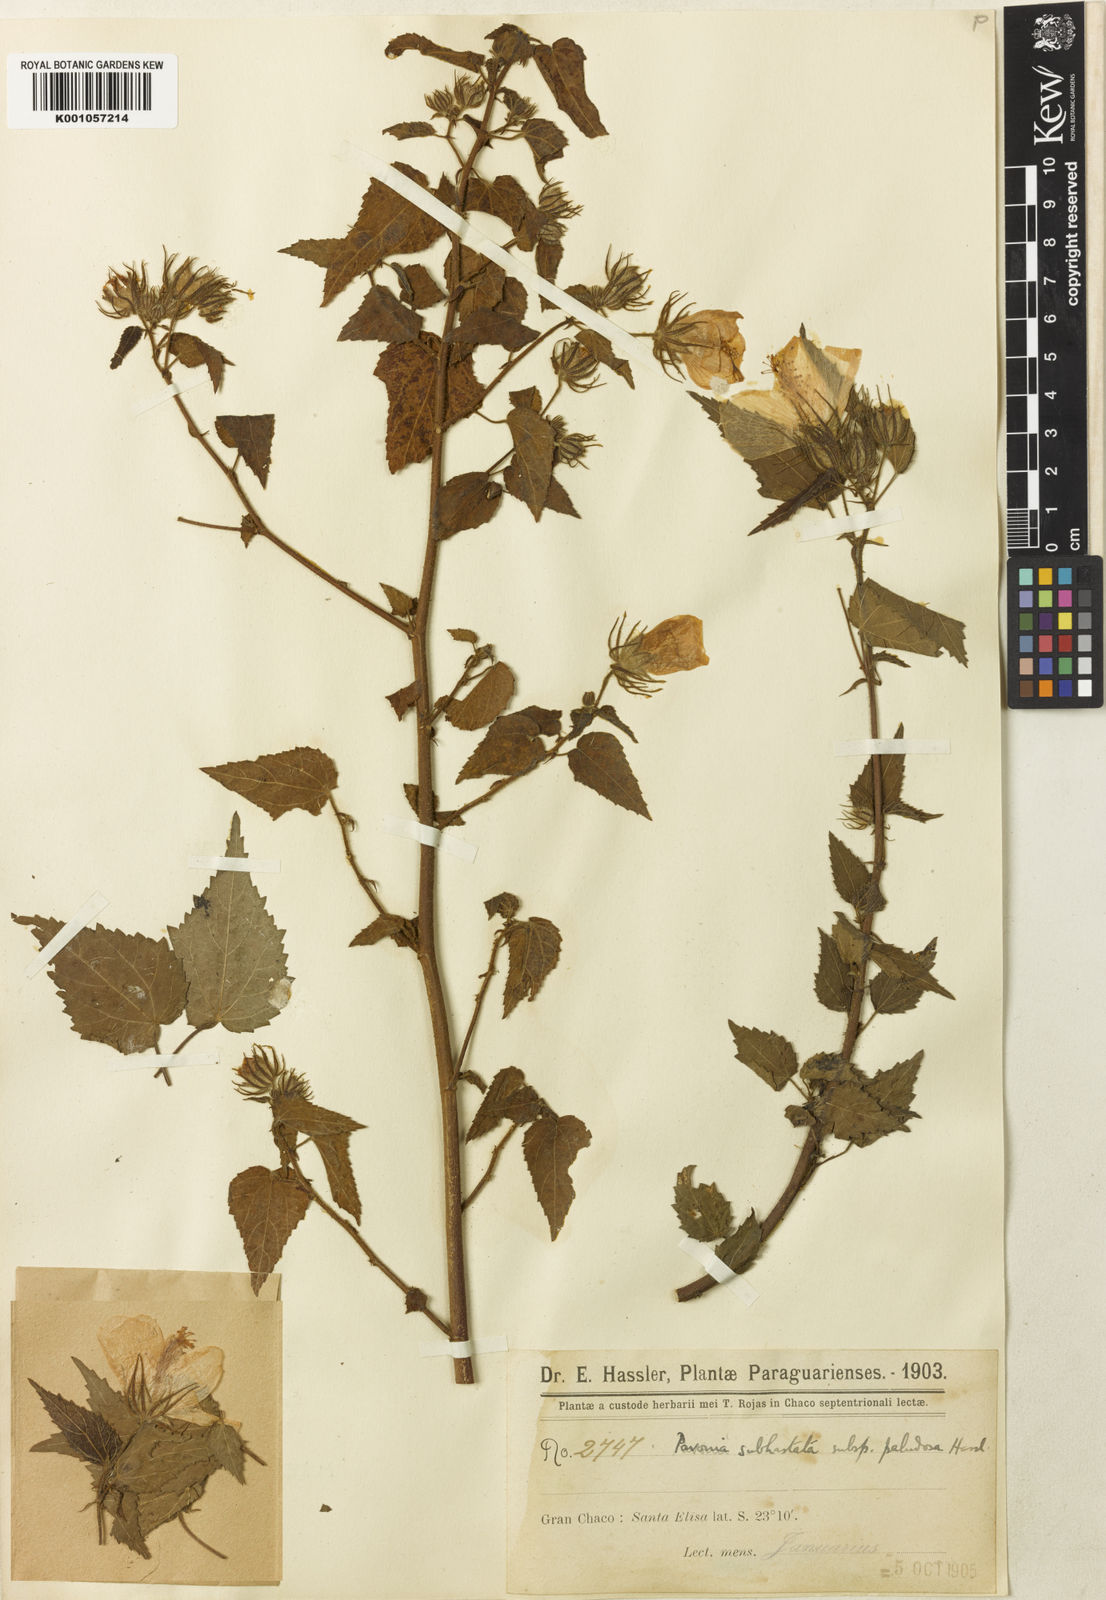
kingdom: Plantae
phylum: Tracheophyta
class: Magnoliopsida
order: Malvales
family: Malvaceae
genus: Pavonia
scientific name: Pavonia patuliloba
